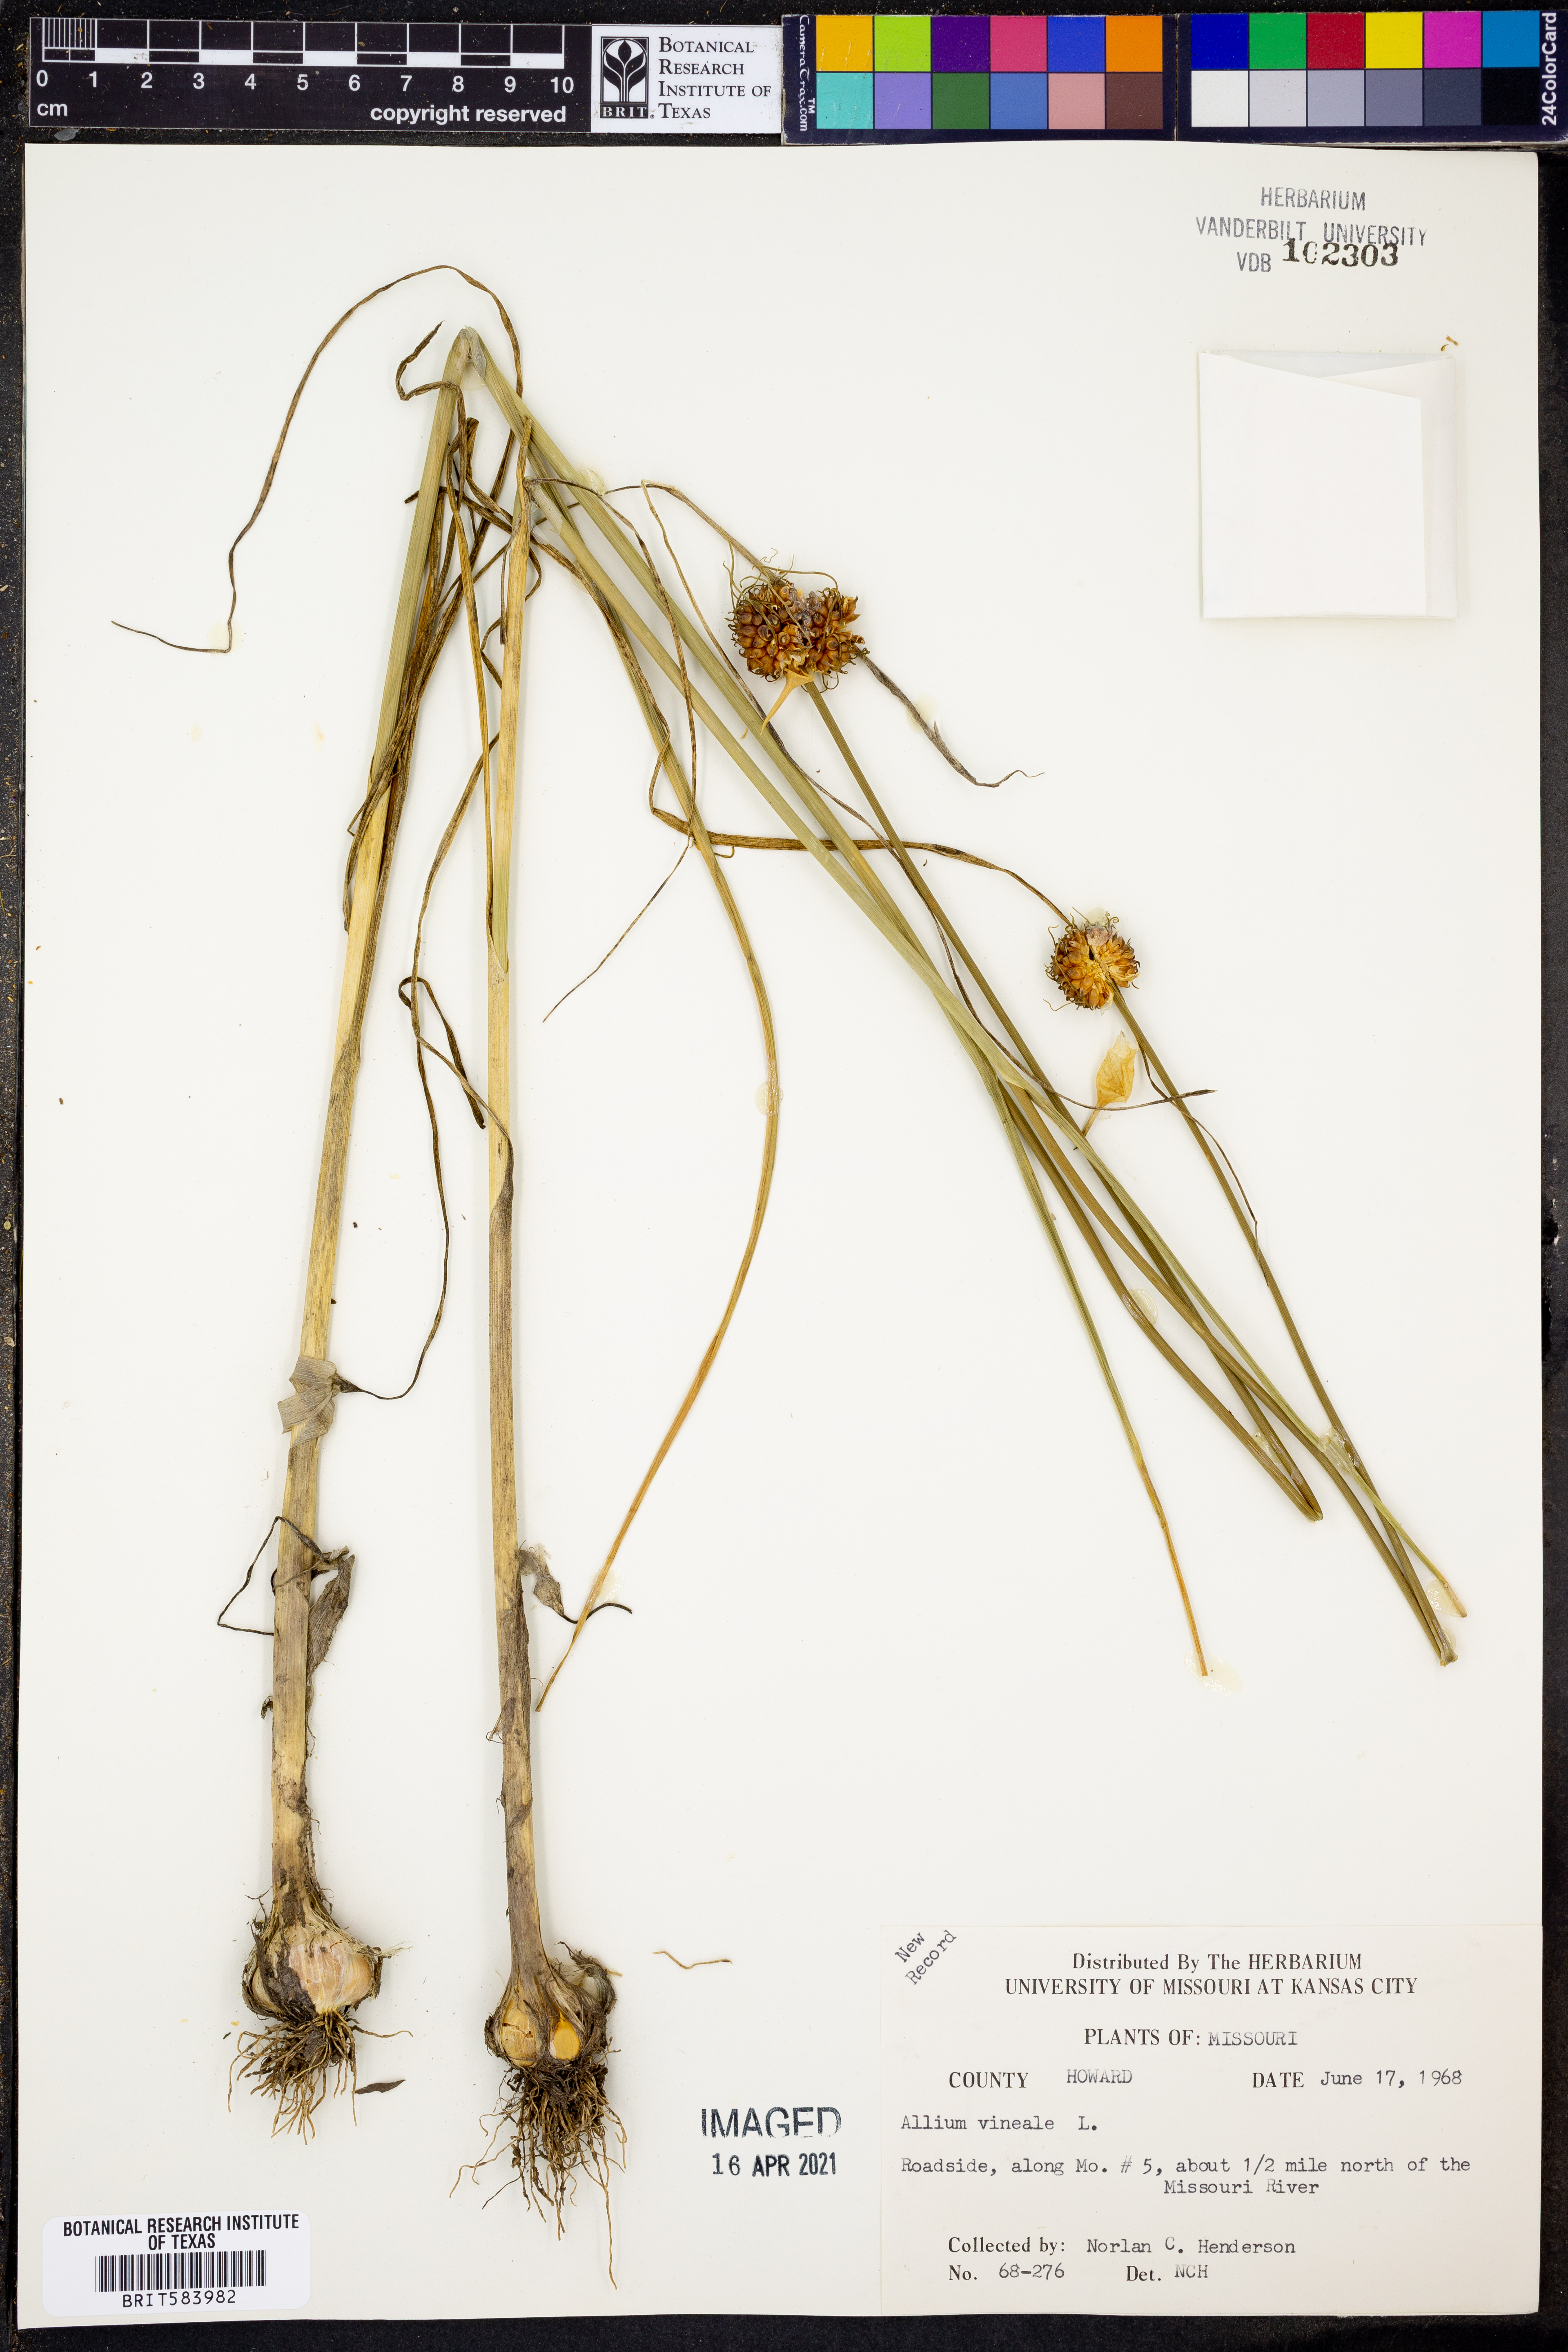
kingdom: Plantae
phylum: Tracheophyta
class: Liliopsida
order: Asparagales
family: Amaryllidaceae
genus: Allium
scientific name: Allium vineale
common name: Crow garlic
